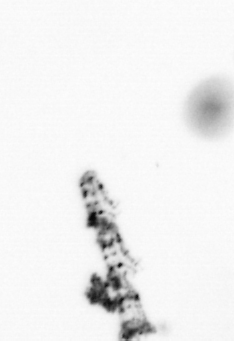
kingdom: Animalia
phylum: Cnidaria
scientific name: Cnidaria
